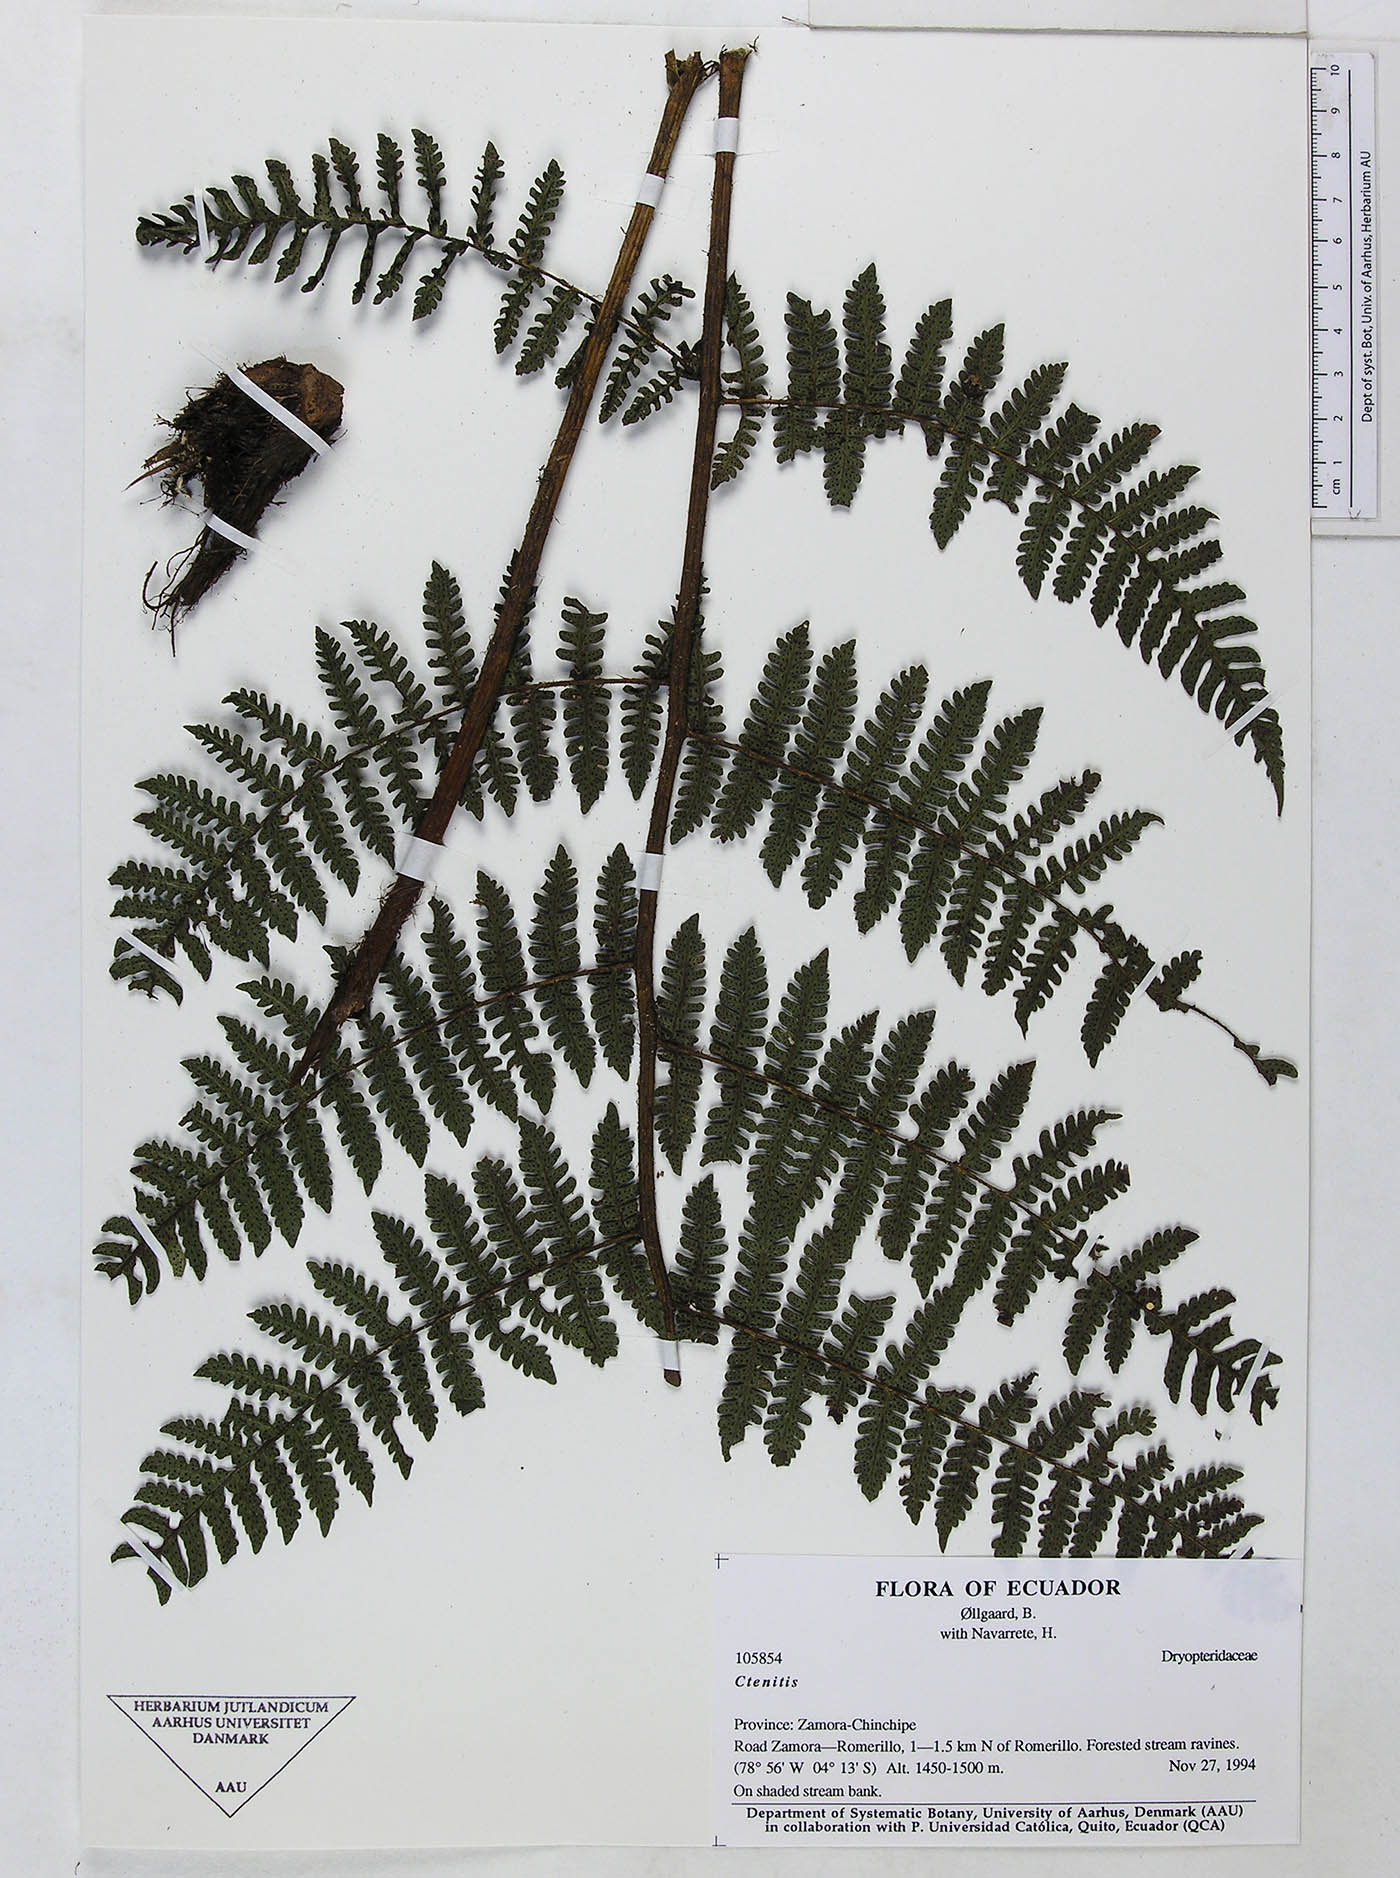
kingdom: Plantae
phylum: Tracheophyta
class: Polypodiopsida
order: Polypodiales
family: Dryopteridaceae
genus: Megalastrum
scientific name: Megalastrum falcatum
